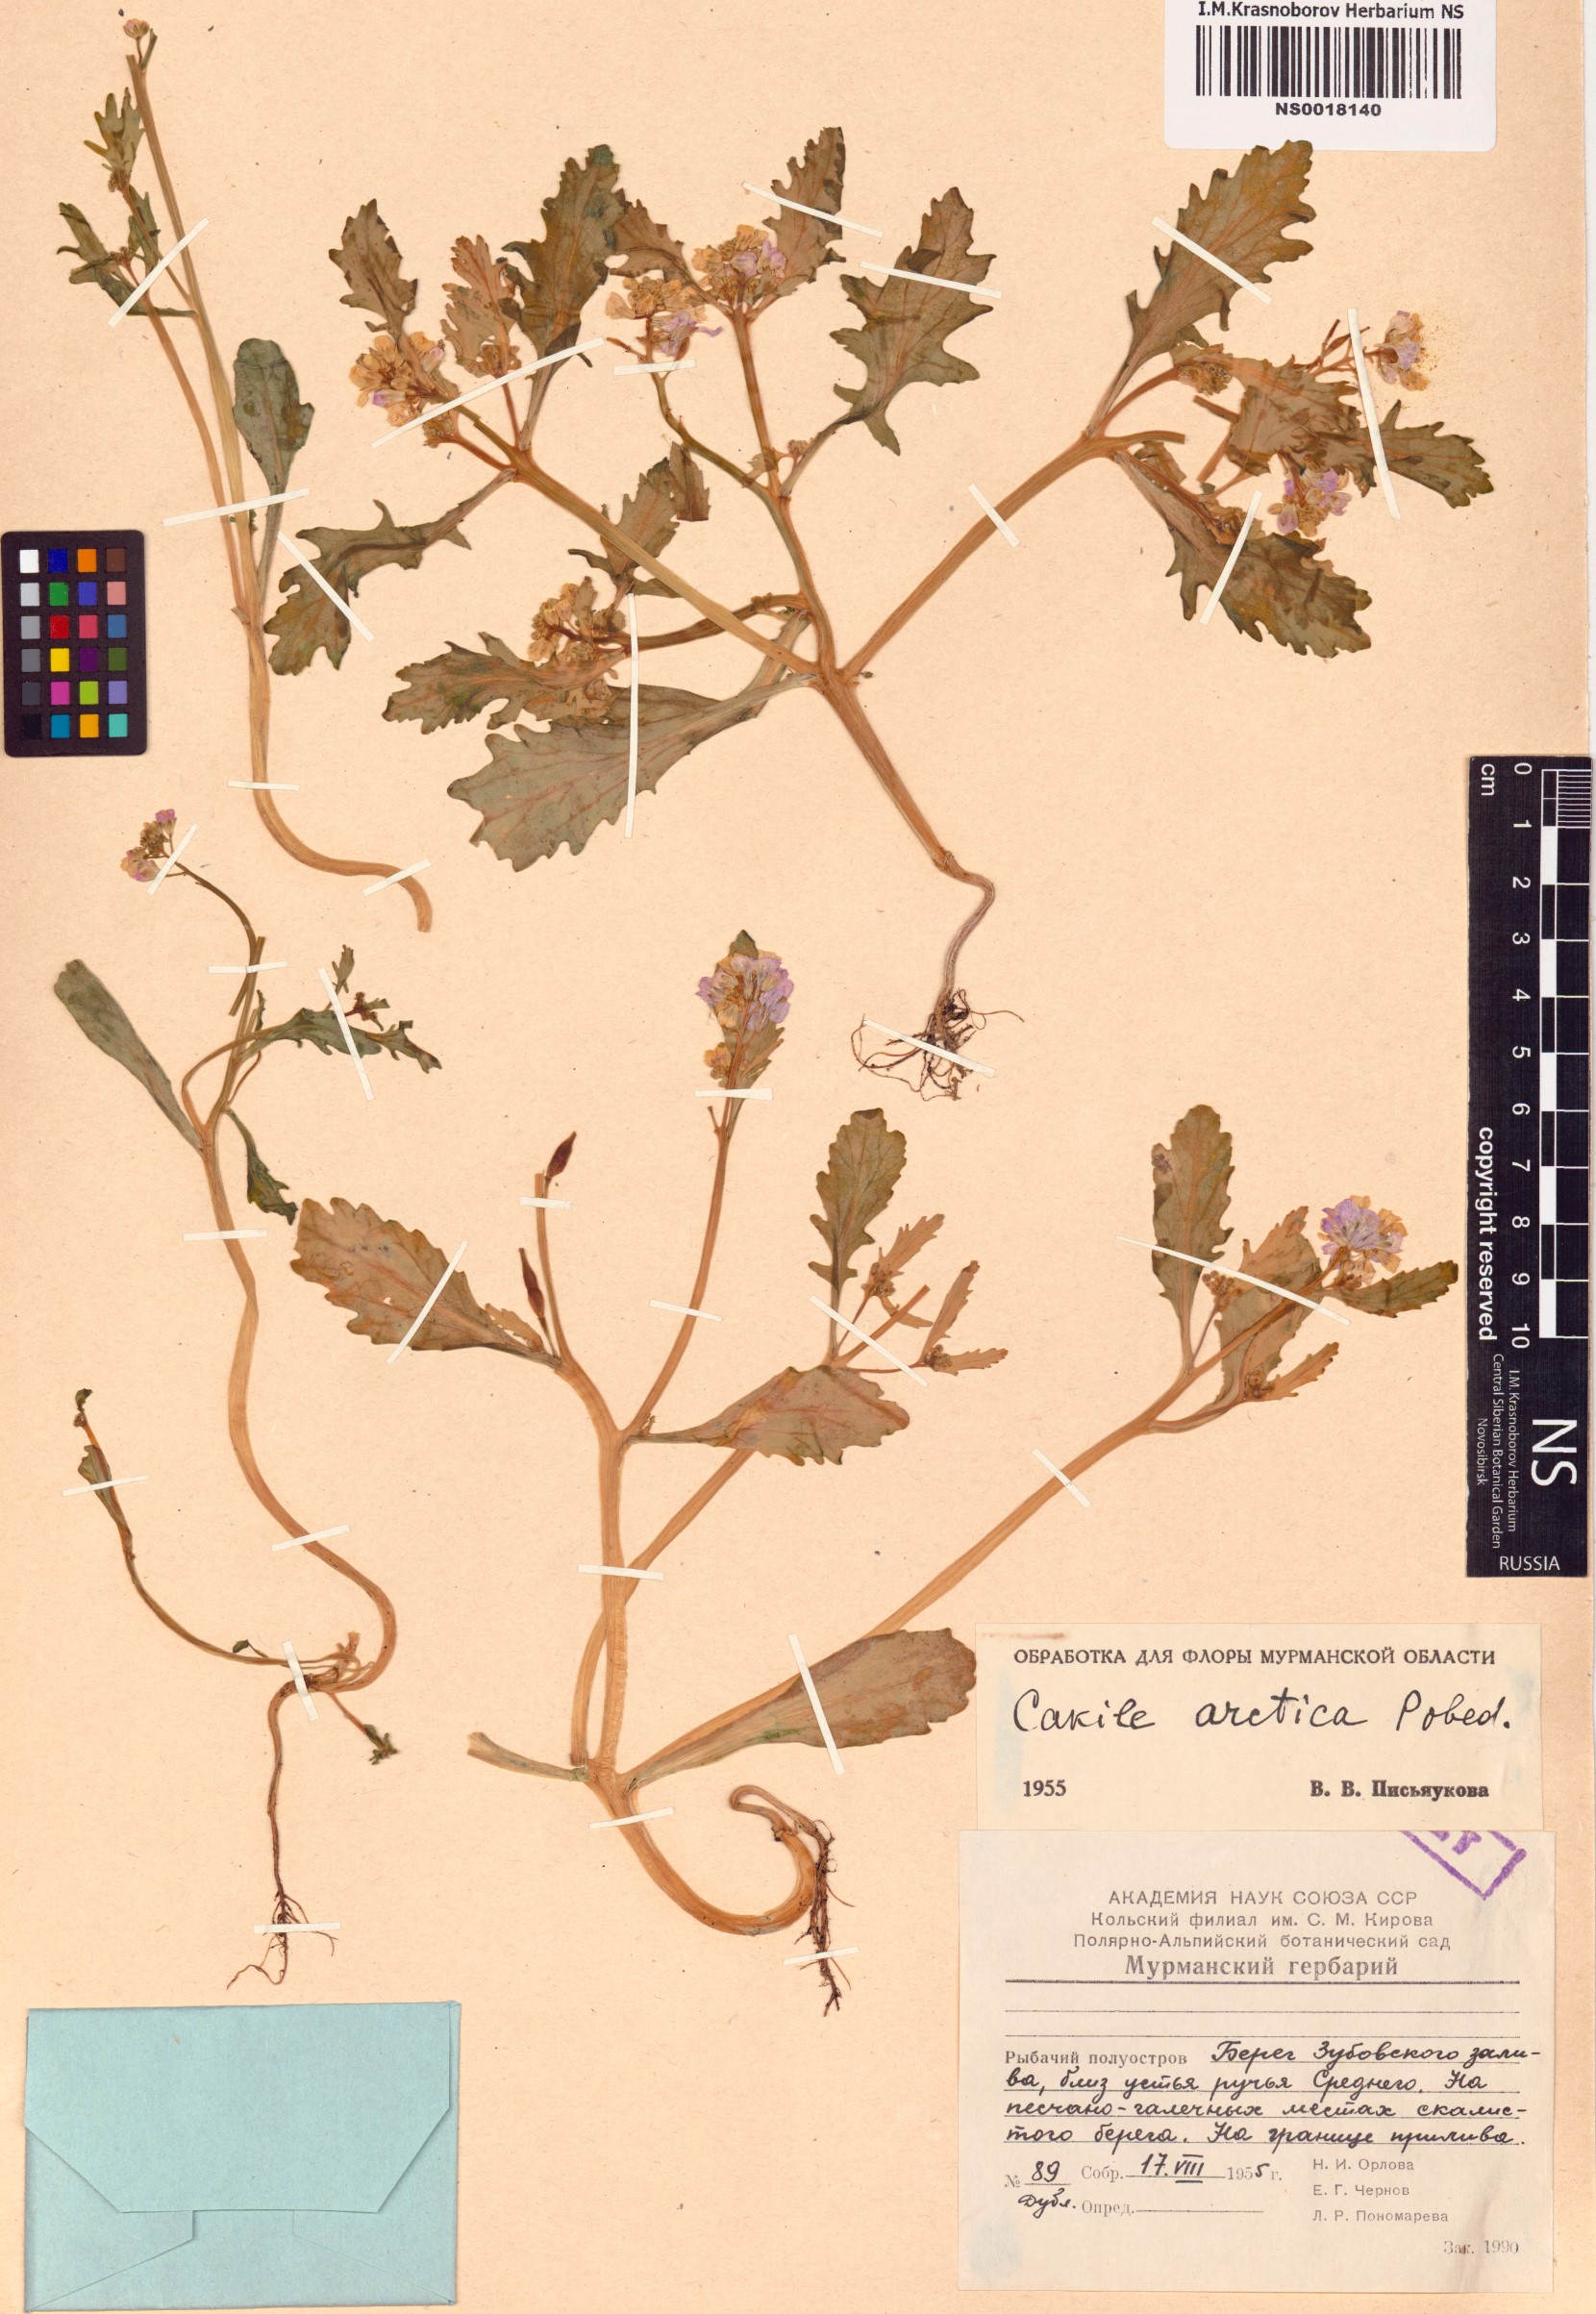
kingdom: Plantae
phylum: Tracheophyta
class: Magnoliopsida
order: Brassicales
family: Brassicaceae
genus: Cakile
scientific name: Cakile arctica
